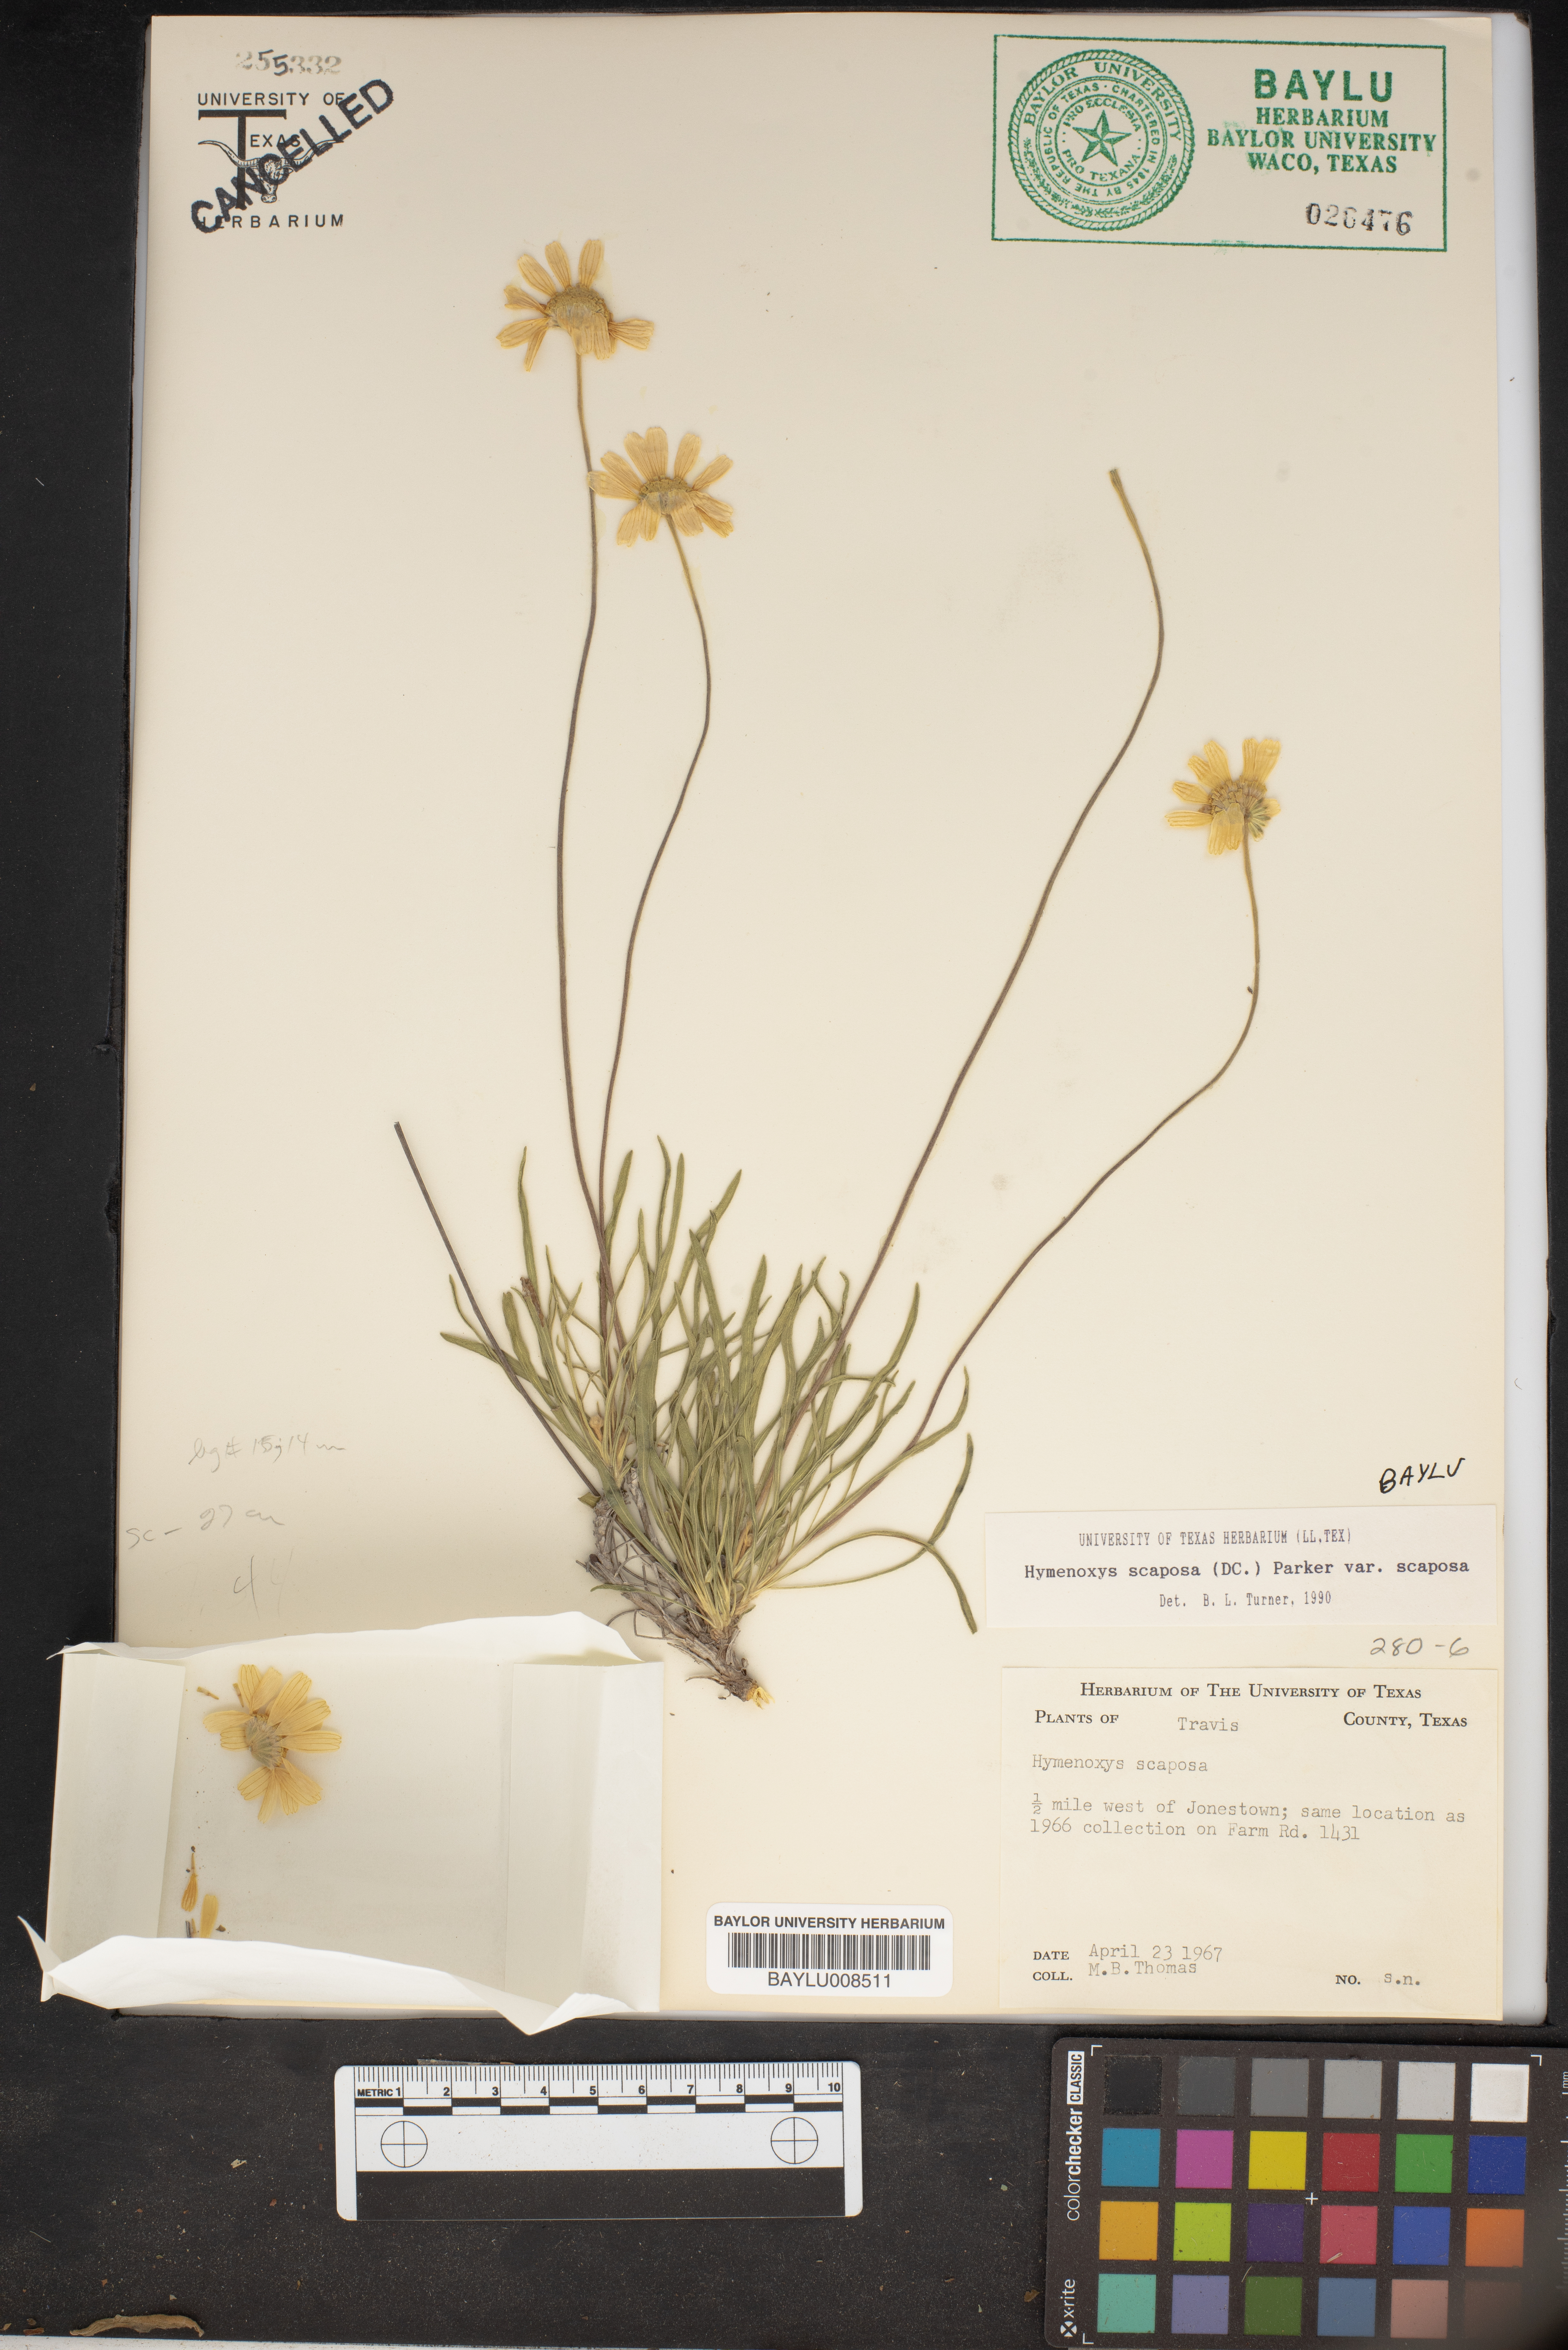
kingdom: Plantae
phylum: Tracheophyta
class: Magnoliopsida
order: Asterales
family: Asteraceae
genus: Tetraneuris
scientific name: Tetraneuris scaposa
